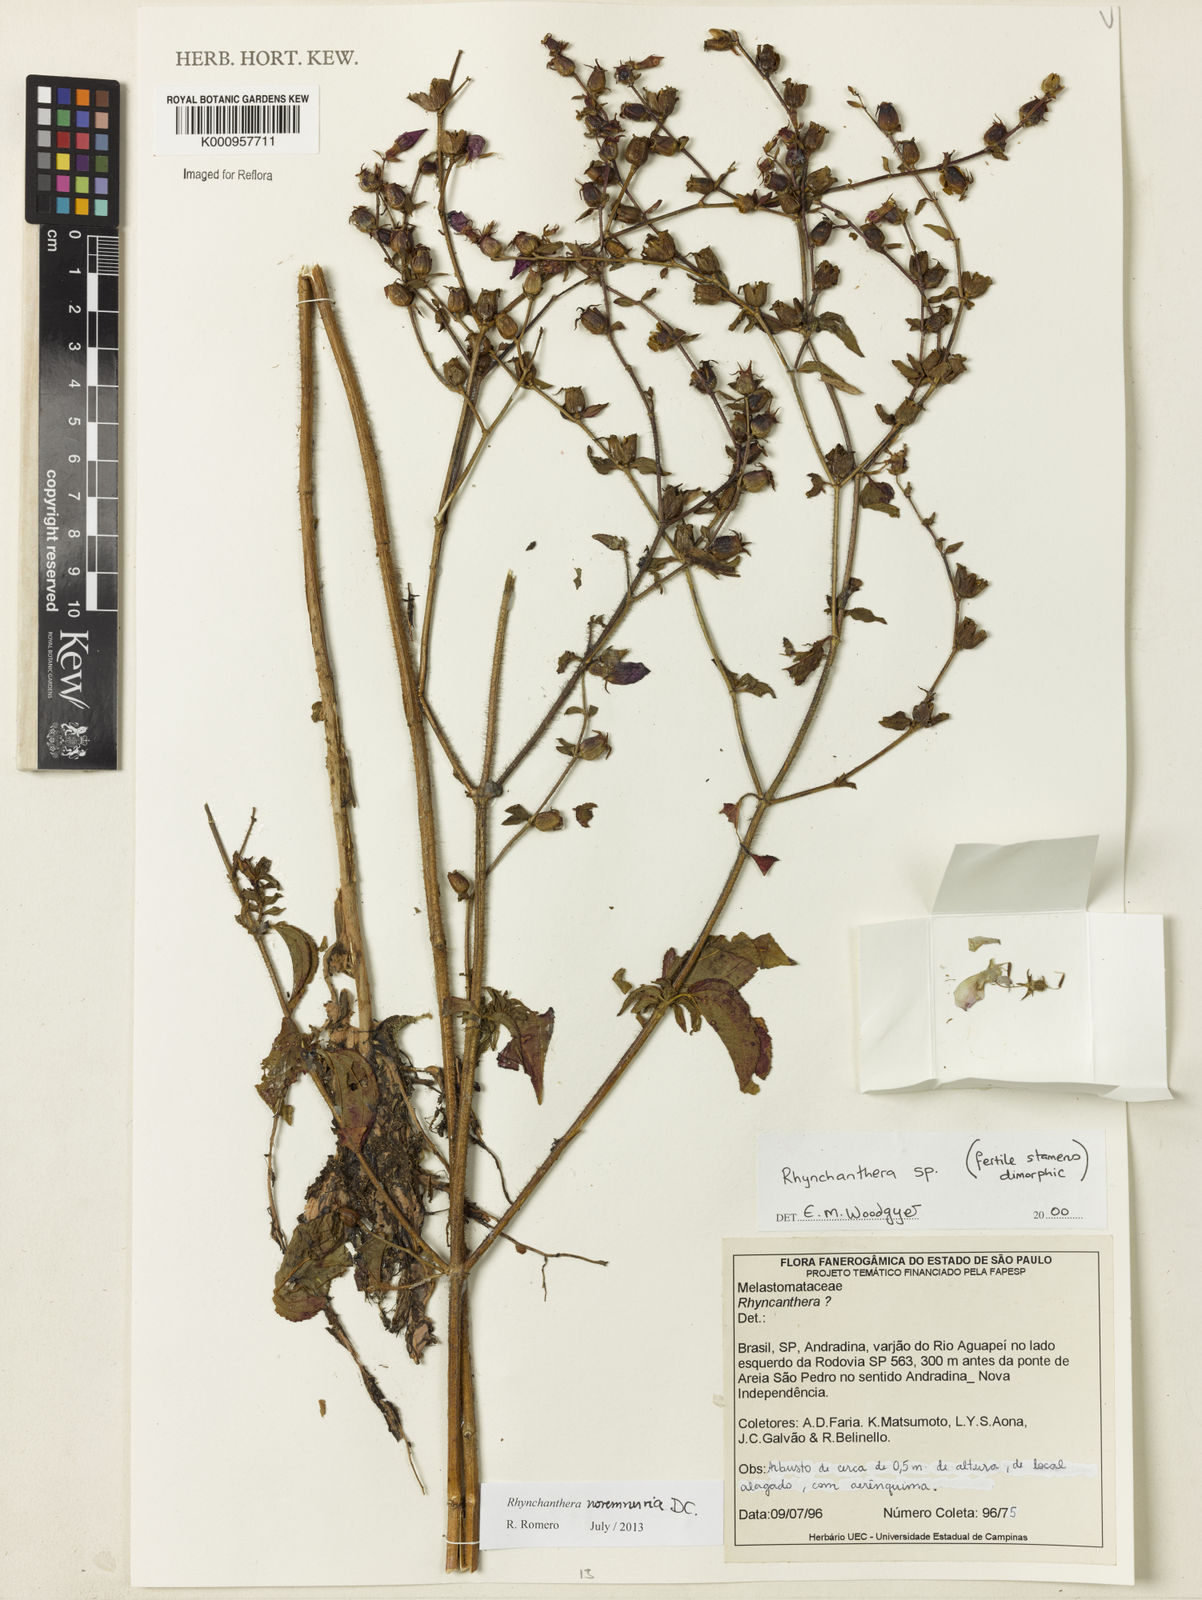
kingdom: Plantae
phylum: Tracheophyta
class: Magnoliopsida
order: Myrtales
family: Melastomataceae
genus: Rhynchanthera
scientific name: Rhynchanthera novemnervia
